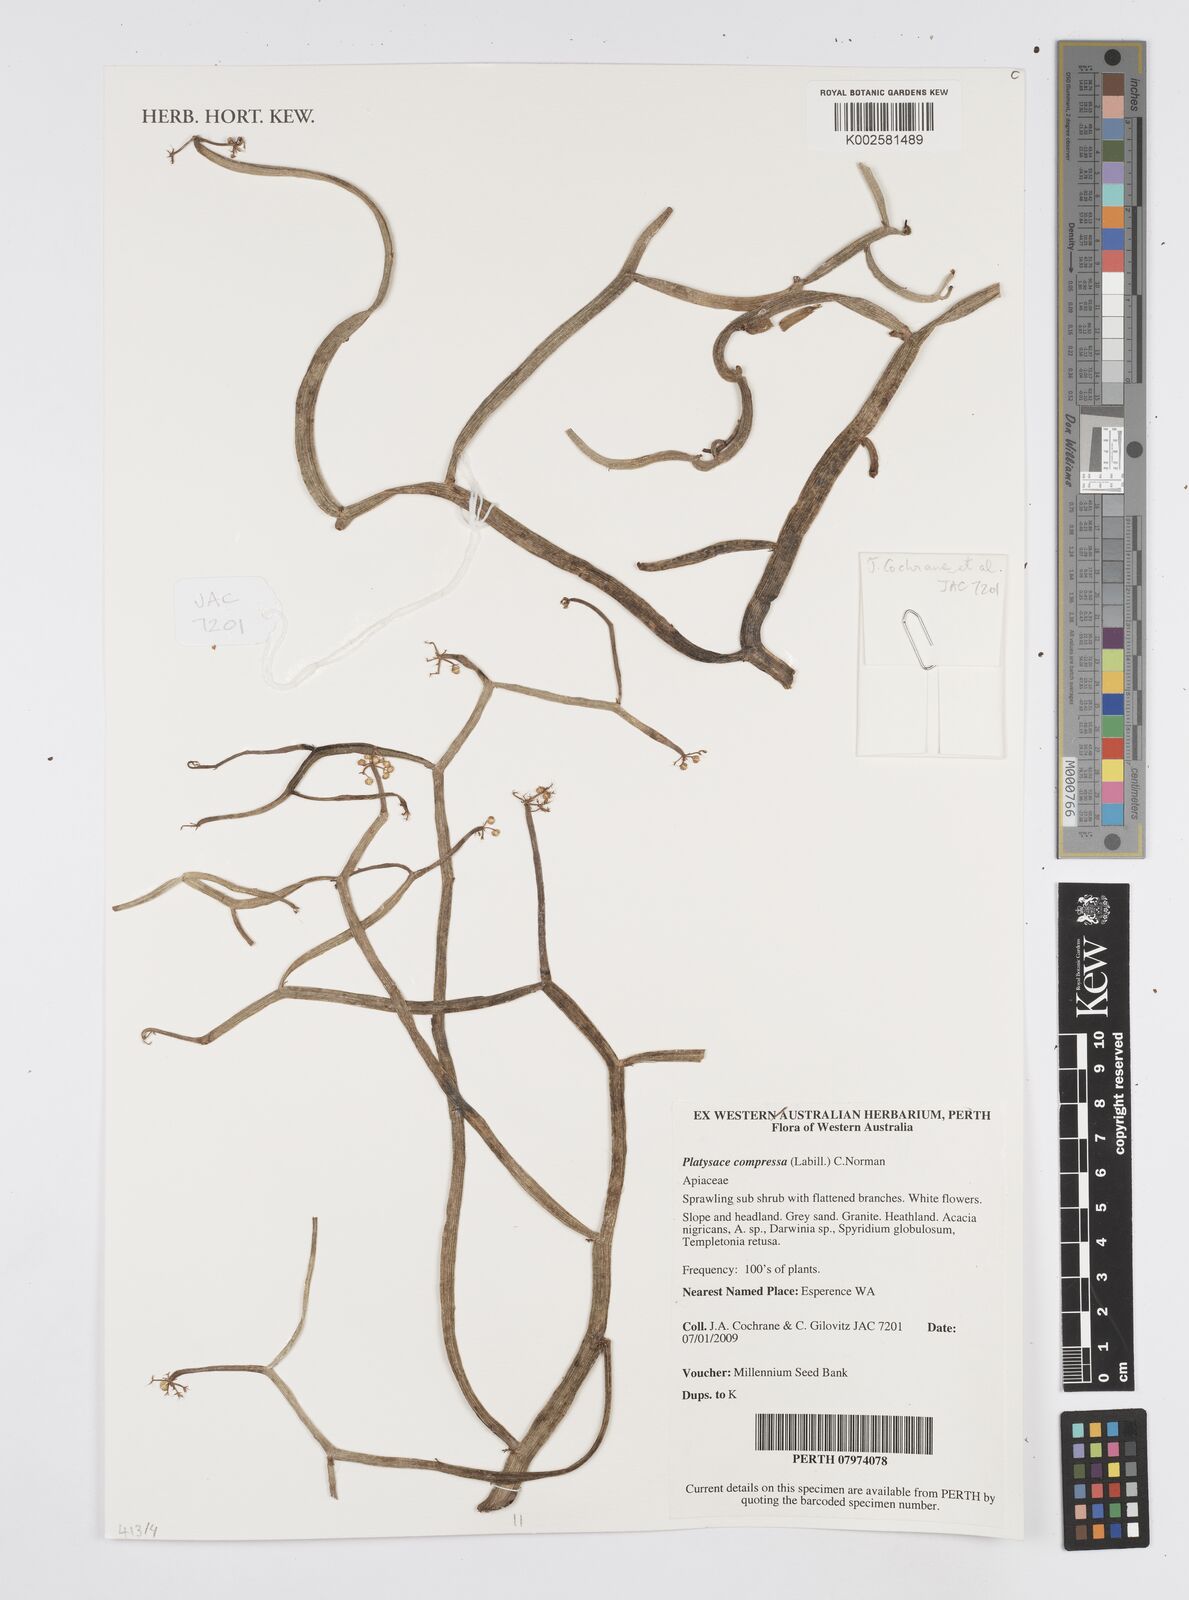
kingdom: Plantae
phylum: Tracheophyta
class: Magnoliopsida
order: Apiales
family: Apiaceae
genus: Centella
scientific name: Centella
